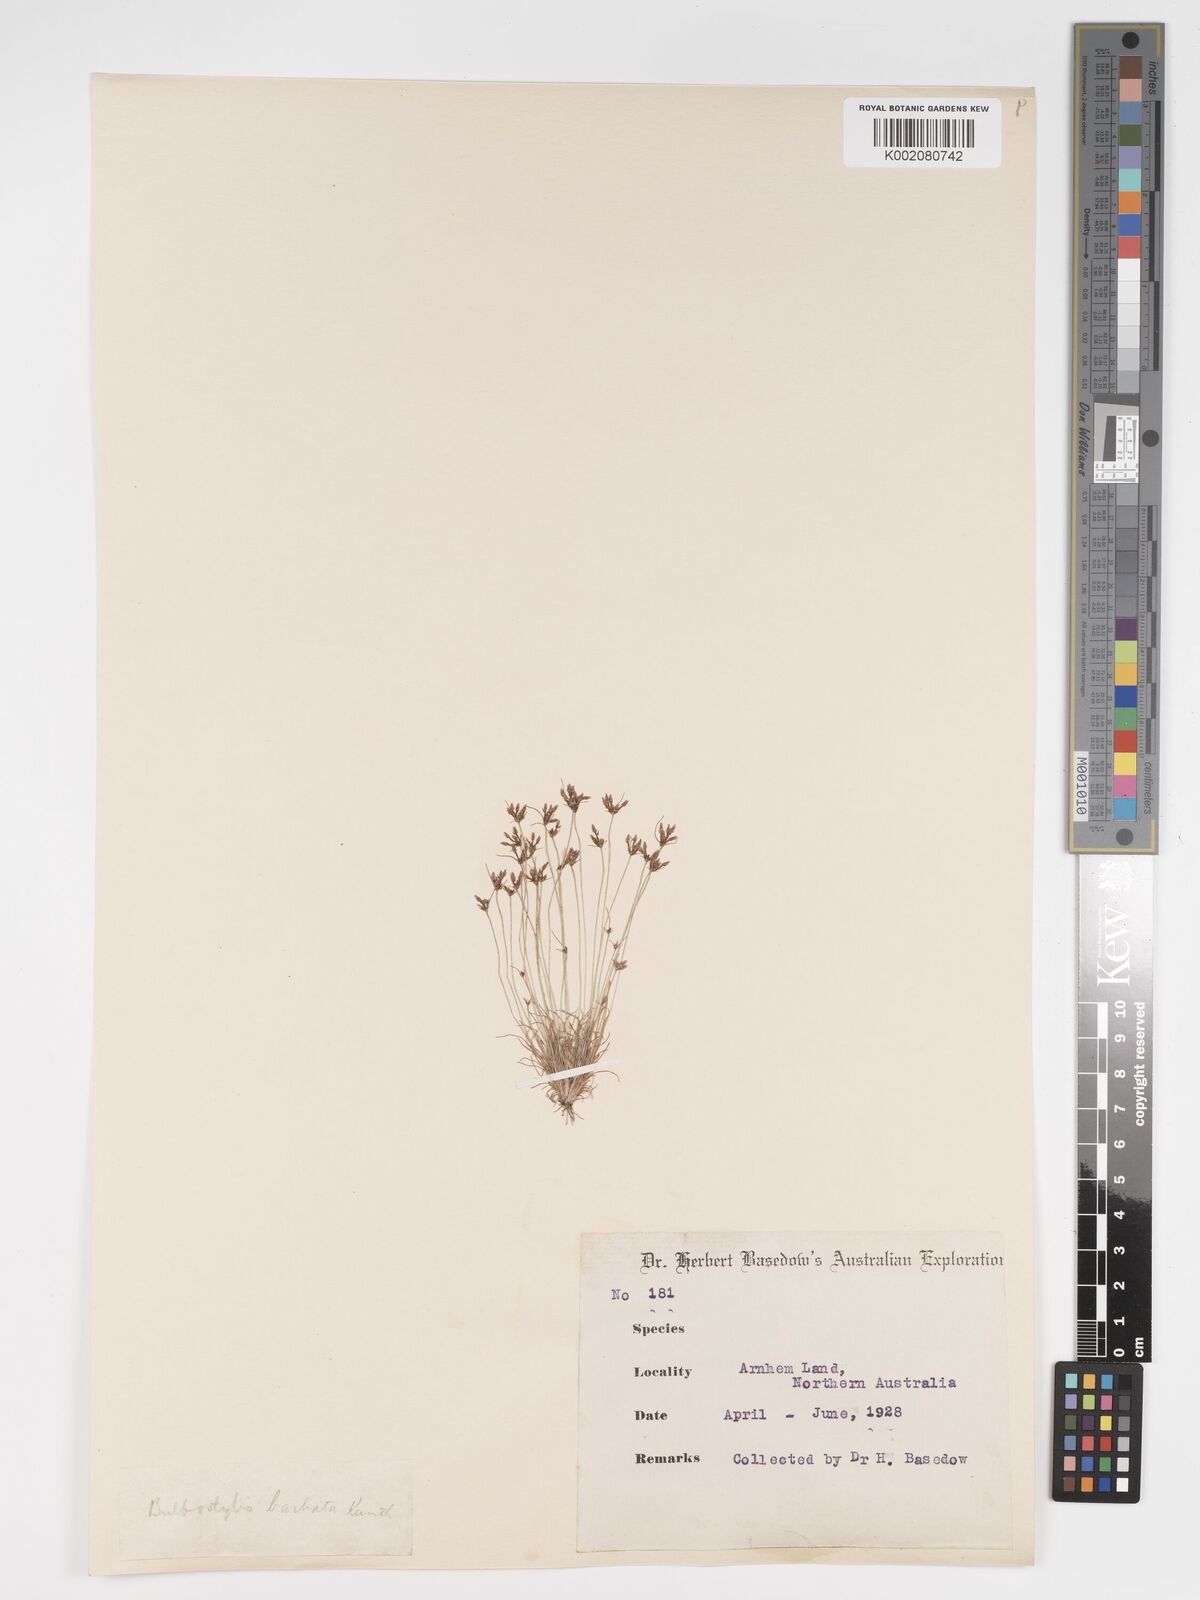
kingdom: Plantae
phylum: Tracheophyta
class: Liliopsida
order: Poales
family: Cyperaceae
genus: Bulbostylis
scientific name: Bulbostylis barbata
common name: Watergrass
